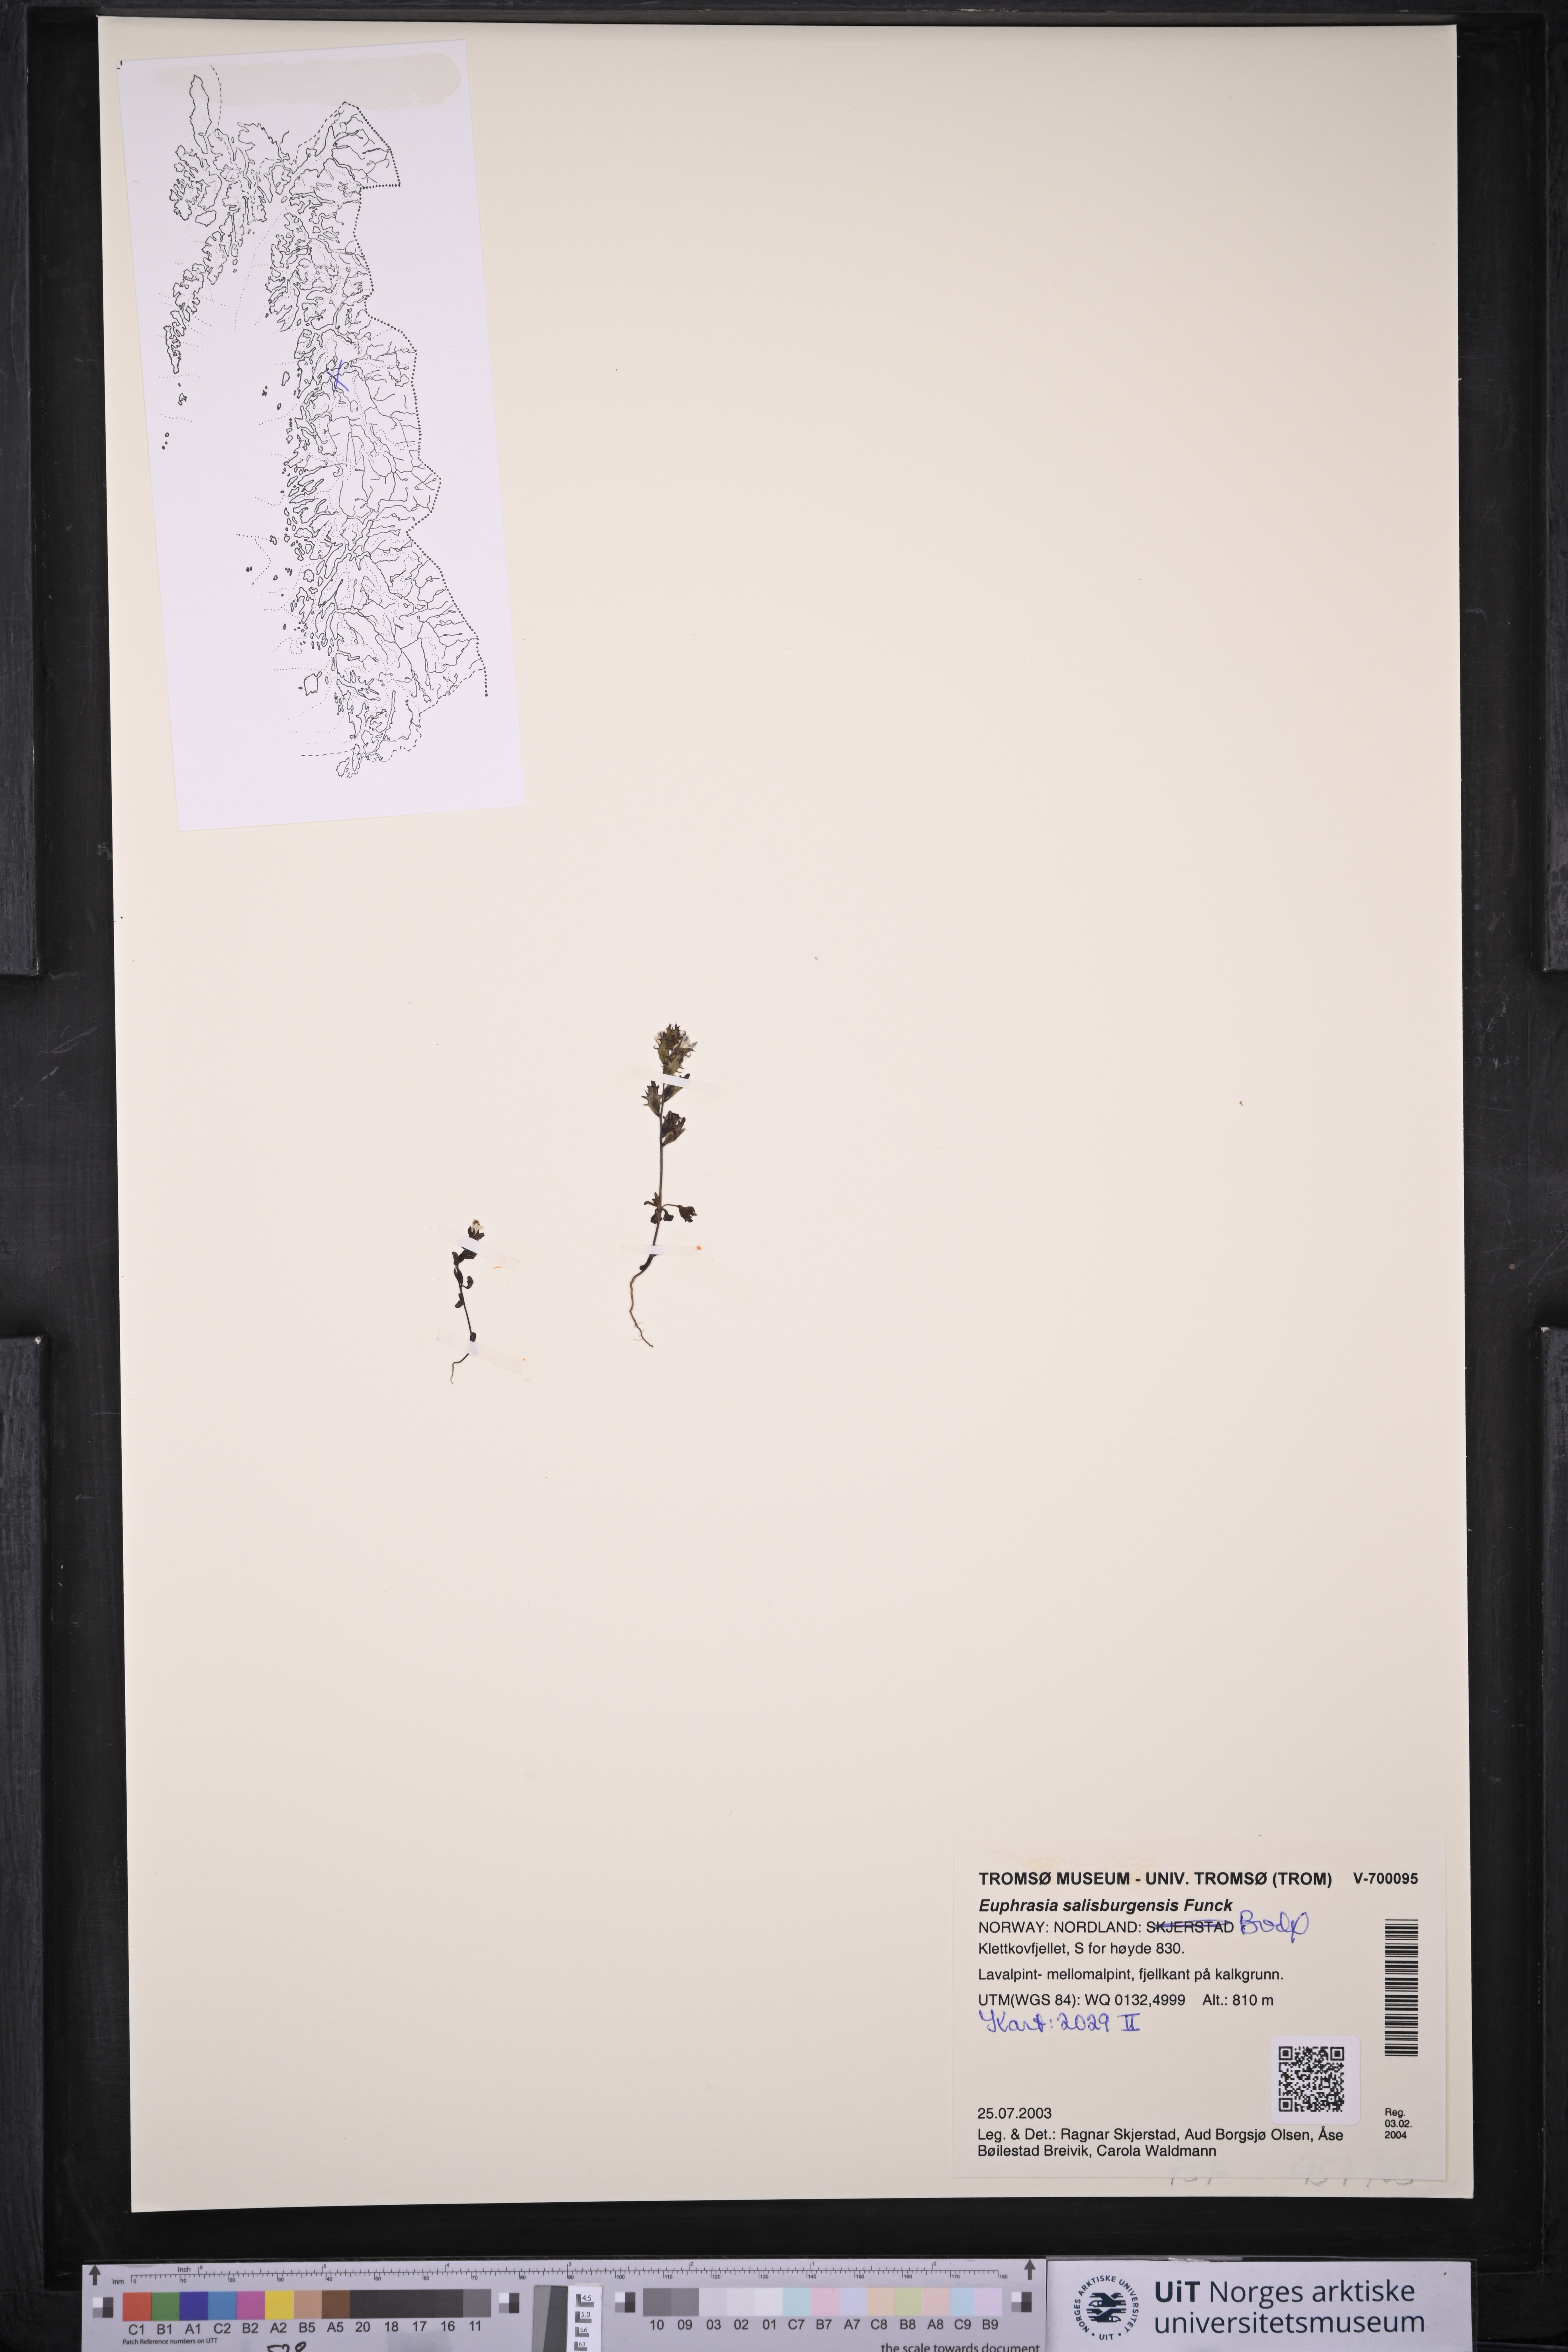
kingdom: Plantae
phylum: Tracheophyta
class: Magnoliopsida
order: Lamiales
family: Orobanchaceae
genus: Euphrasia
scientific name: Euphrasia salisburgensis
